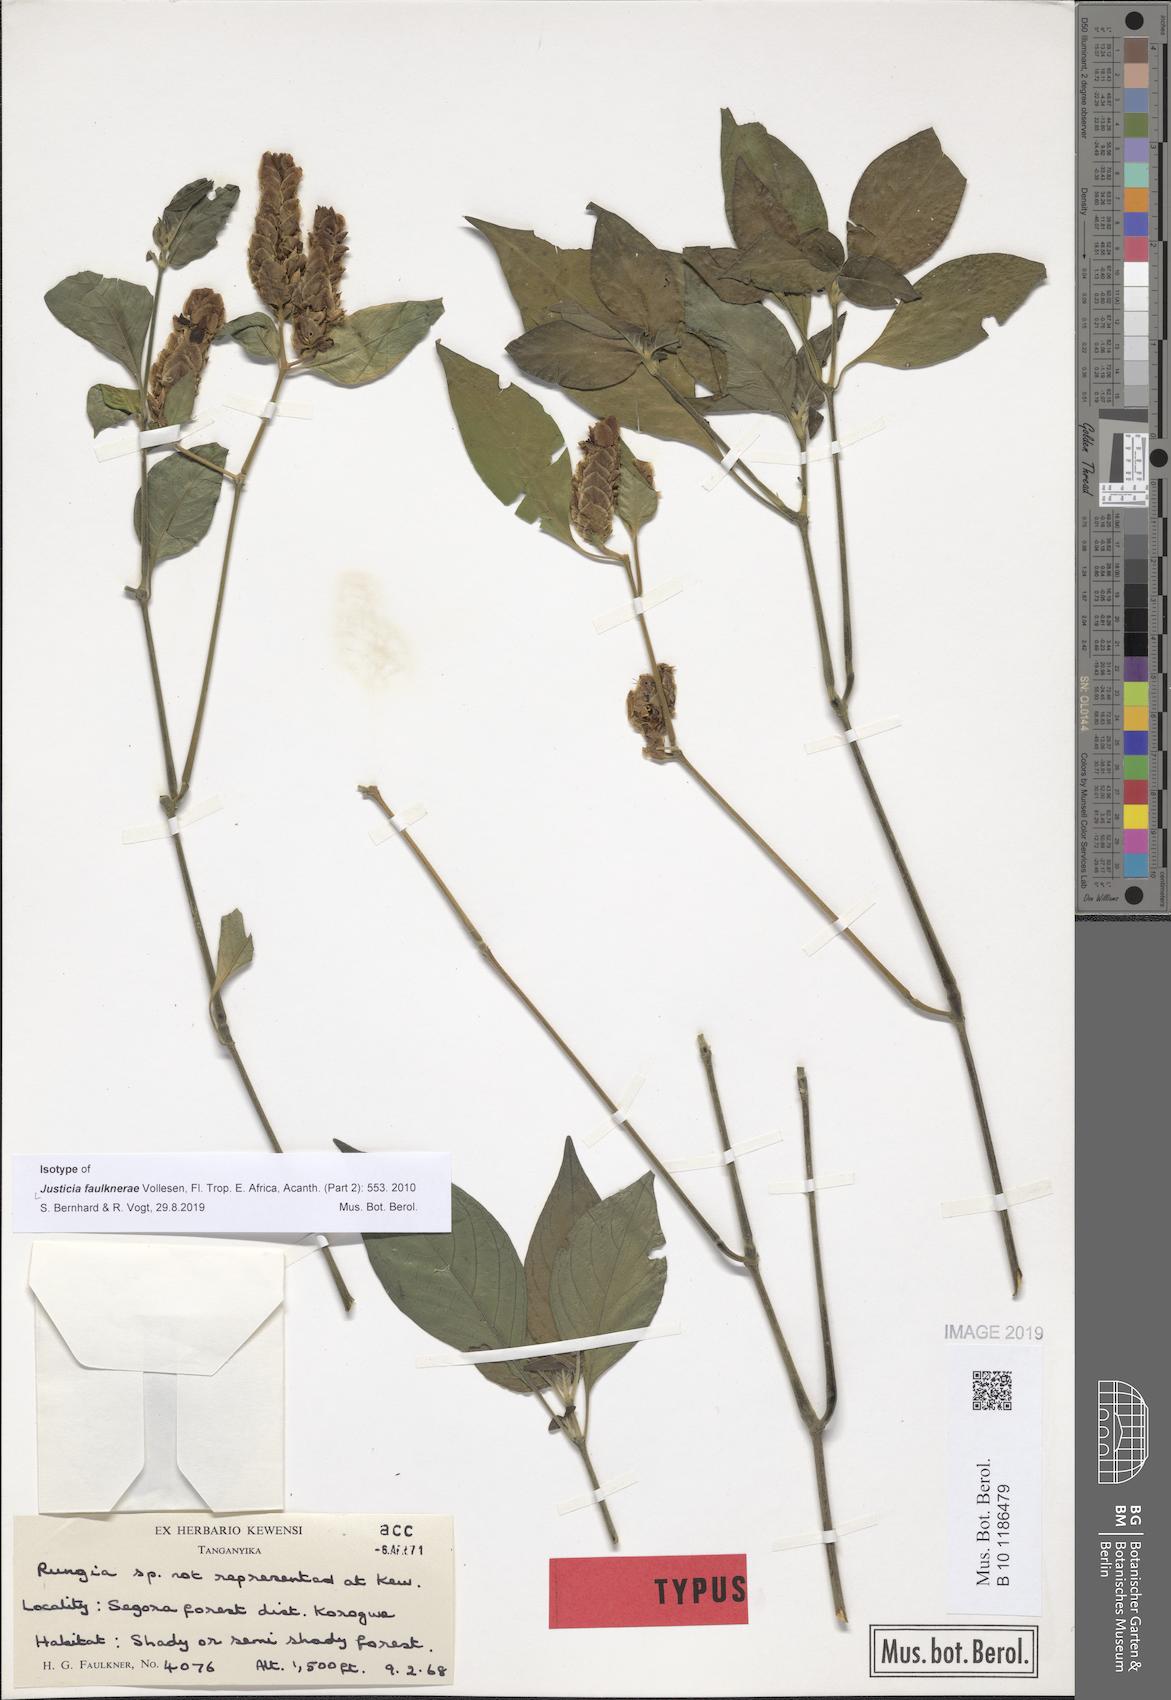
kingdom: Plantae
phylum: Tracheophyta
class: Magnoliopsida
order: Lamiales
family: Acanthaceae
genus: Justicia
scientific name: Justicia faulknerae
